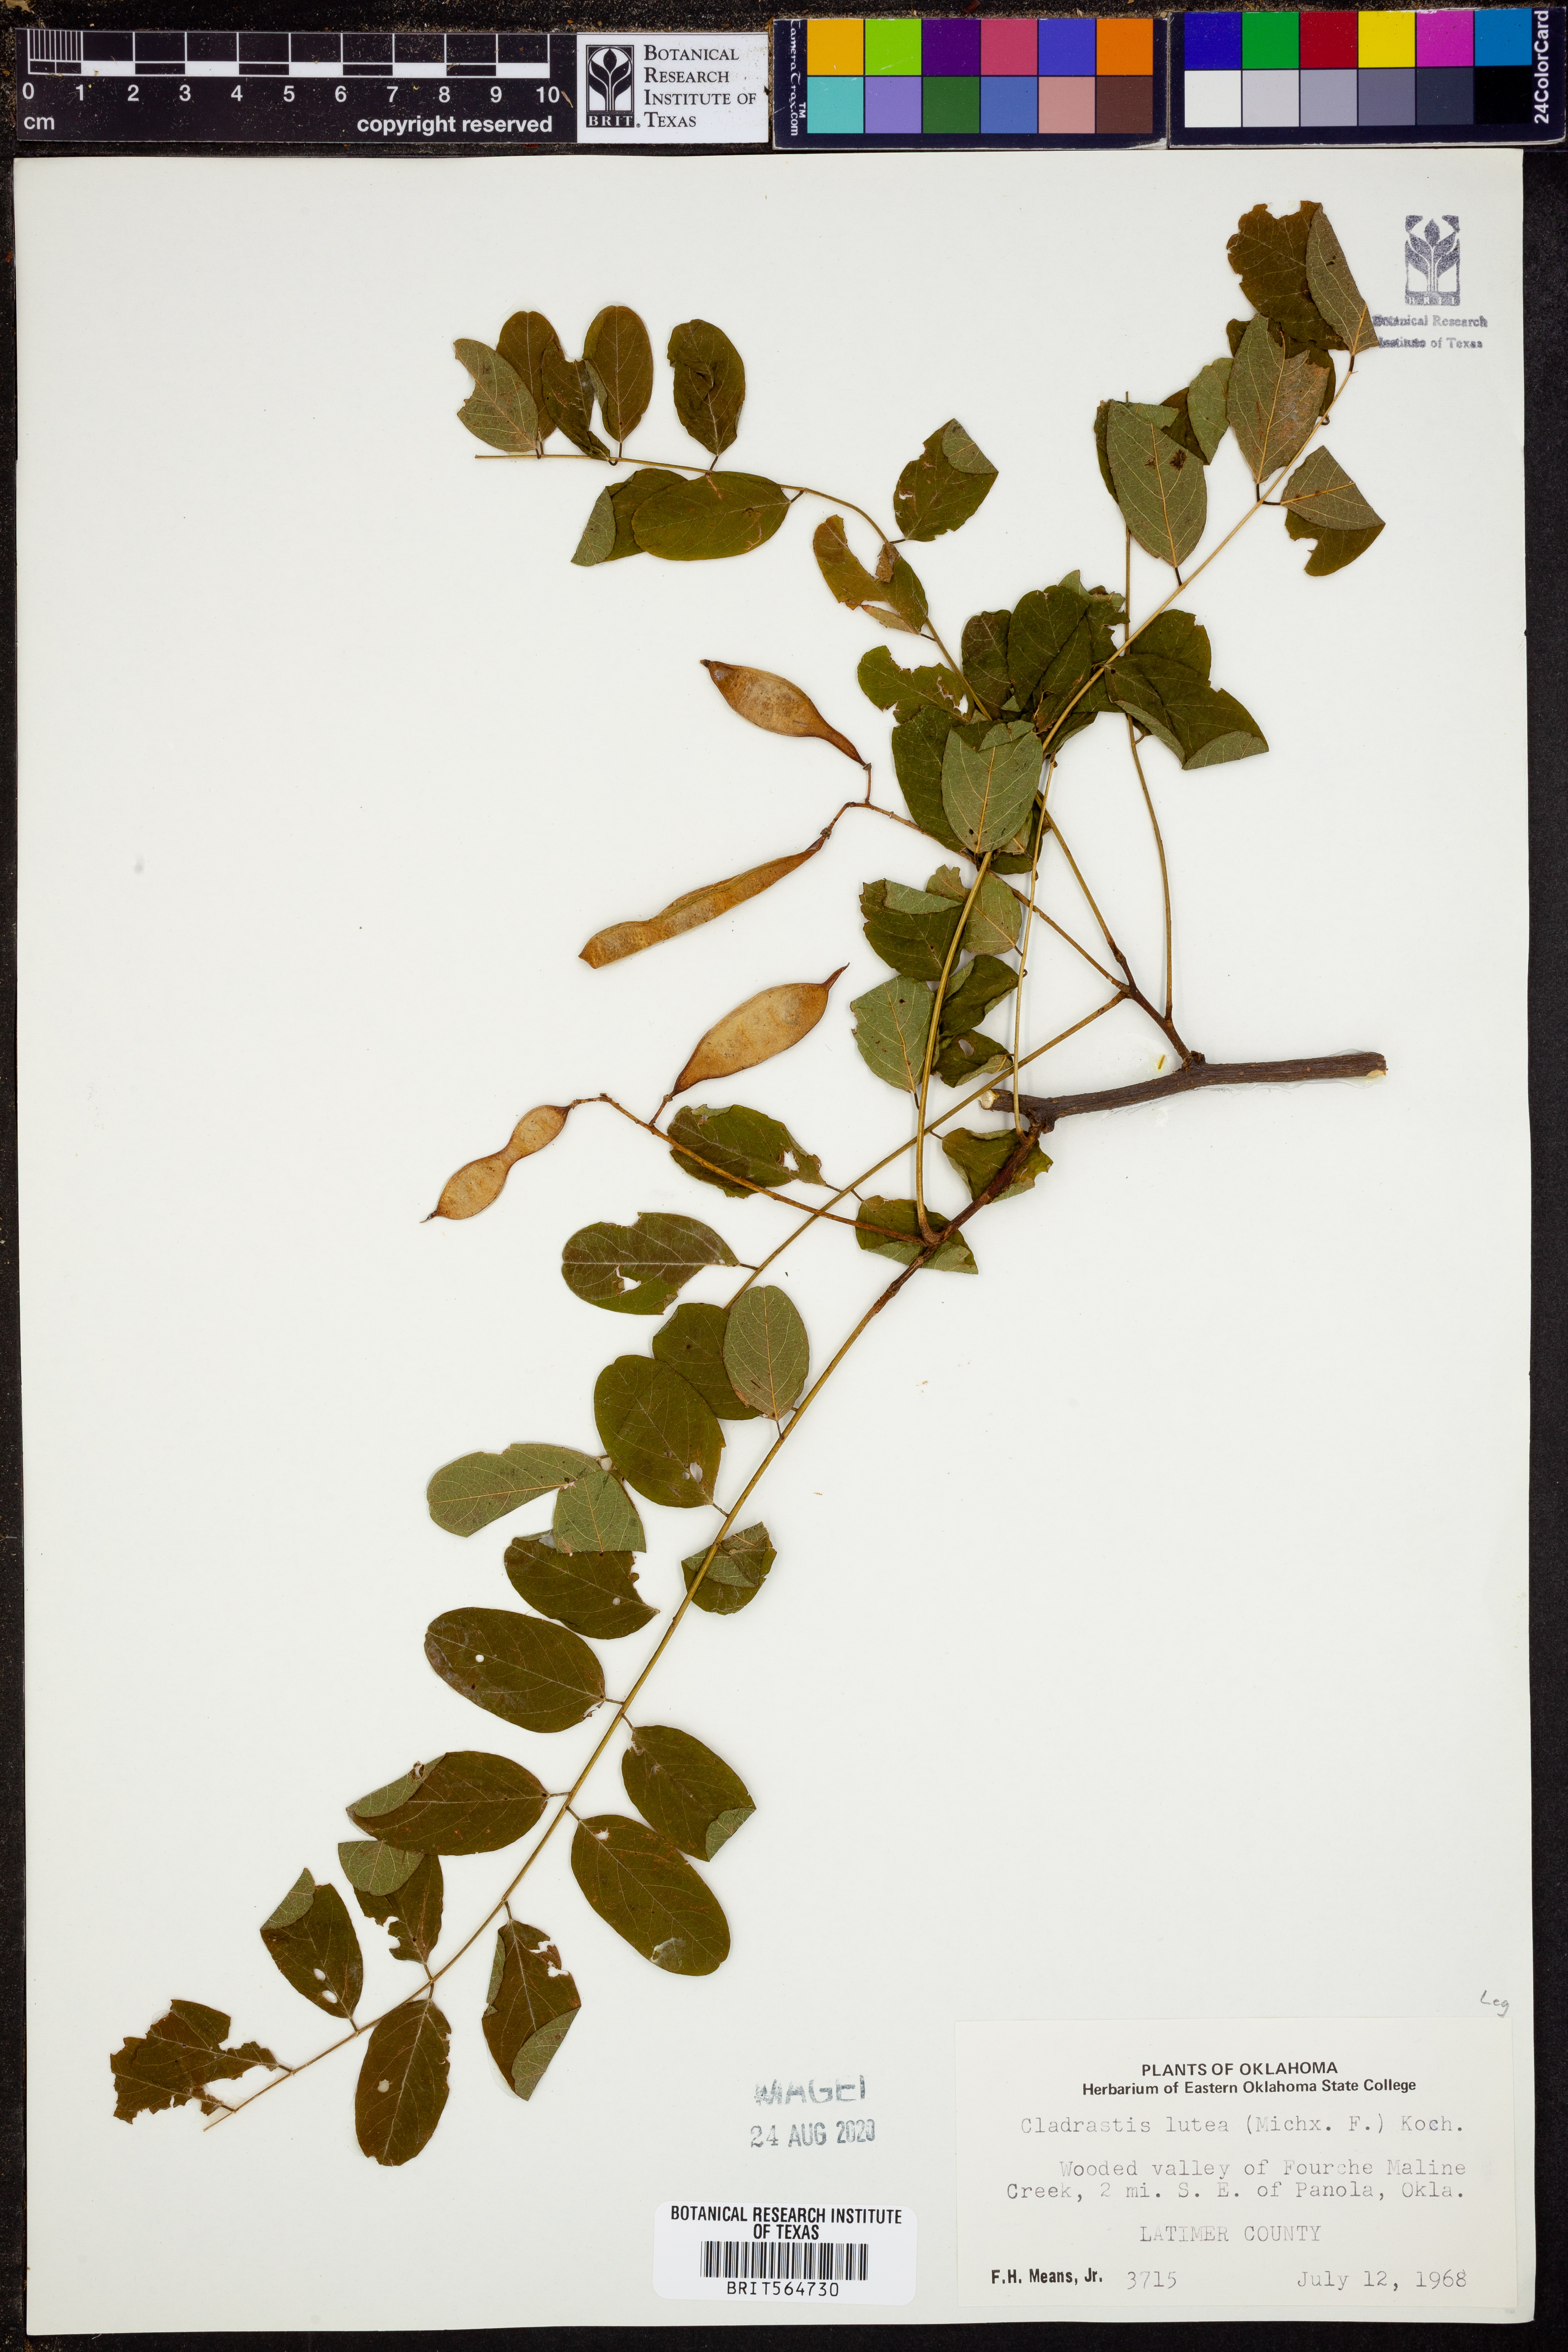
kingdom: Plantae
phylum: Tracheophyta
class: Magnoliopsida
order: Fabales
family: Fabaceae
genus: Cladrastis
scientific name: Cladrastis kentukea
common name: Kentucky yellow-wood
